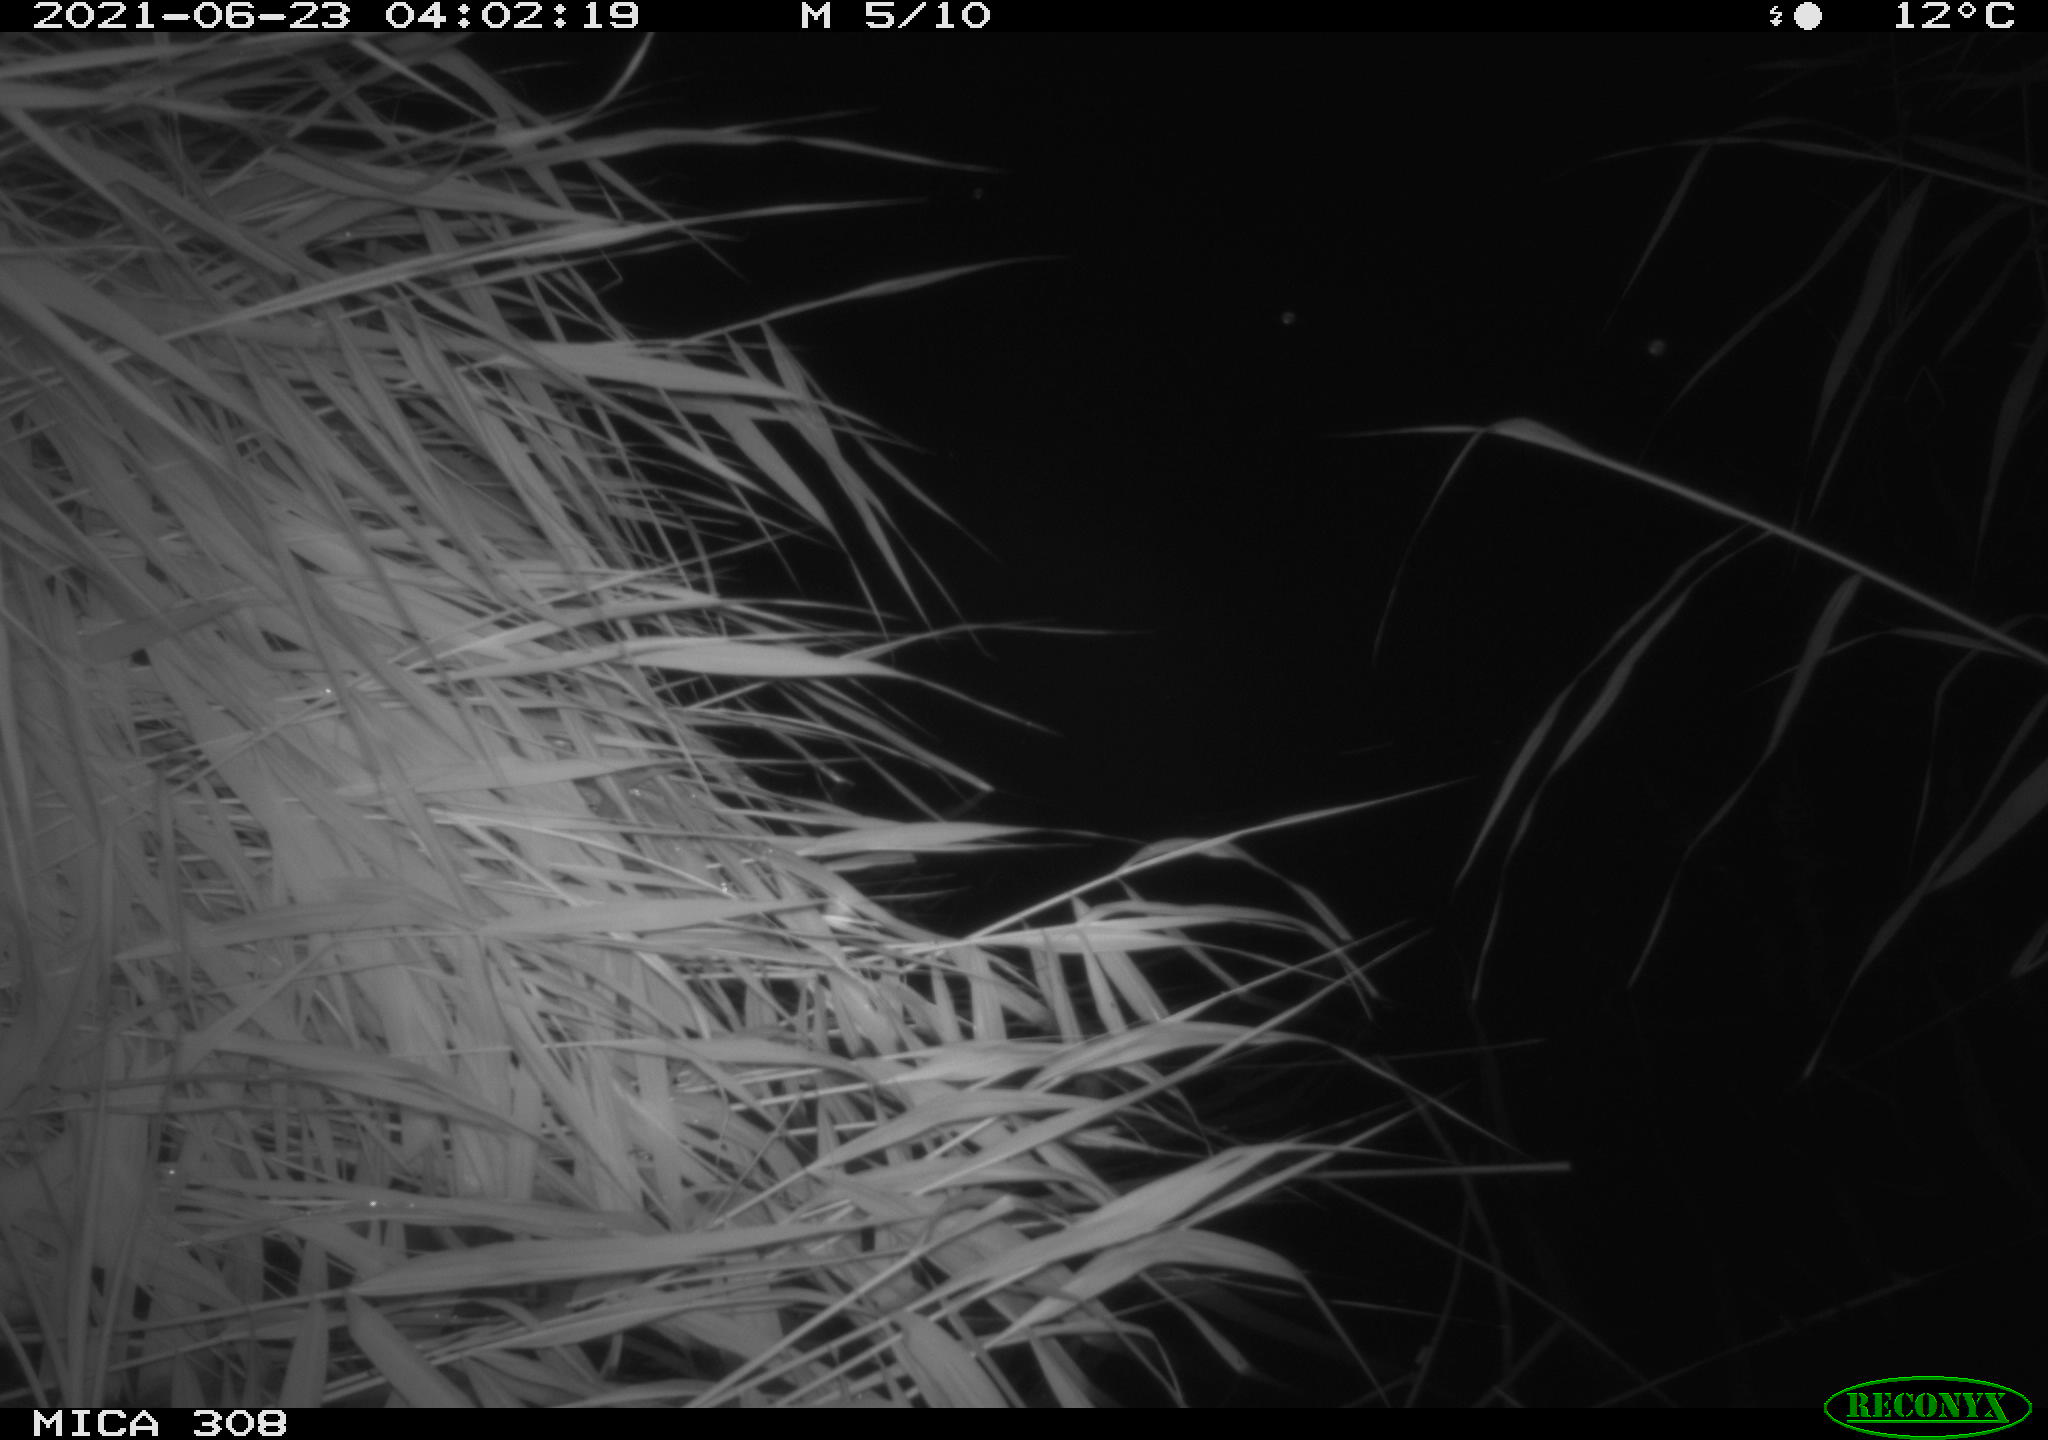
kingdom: Animalia
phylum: Chordata
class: Aves
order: Anseriformes
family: Anatidae
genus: Anas
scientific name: Anas platyrhynchos
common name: Mallard
